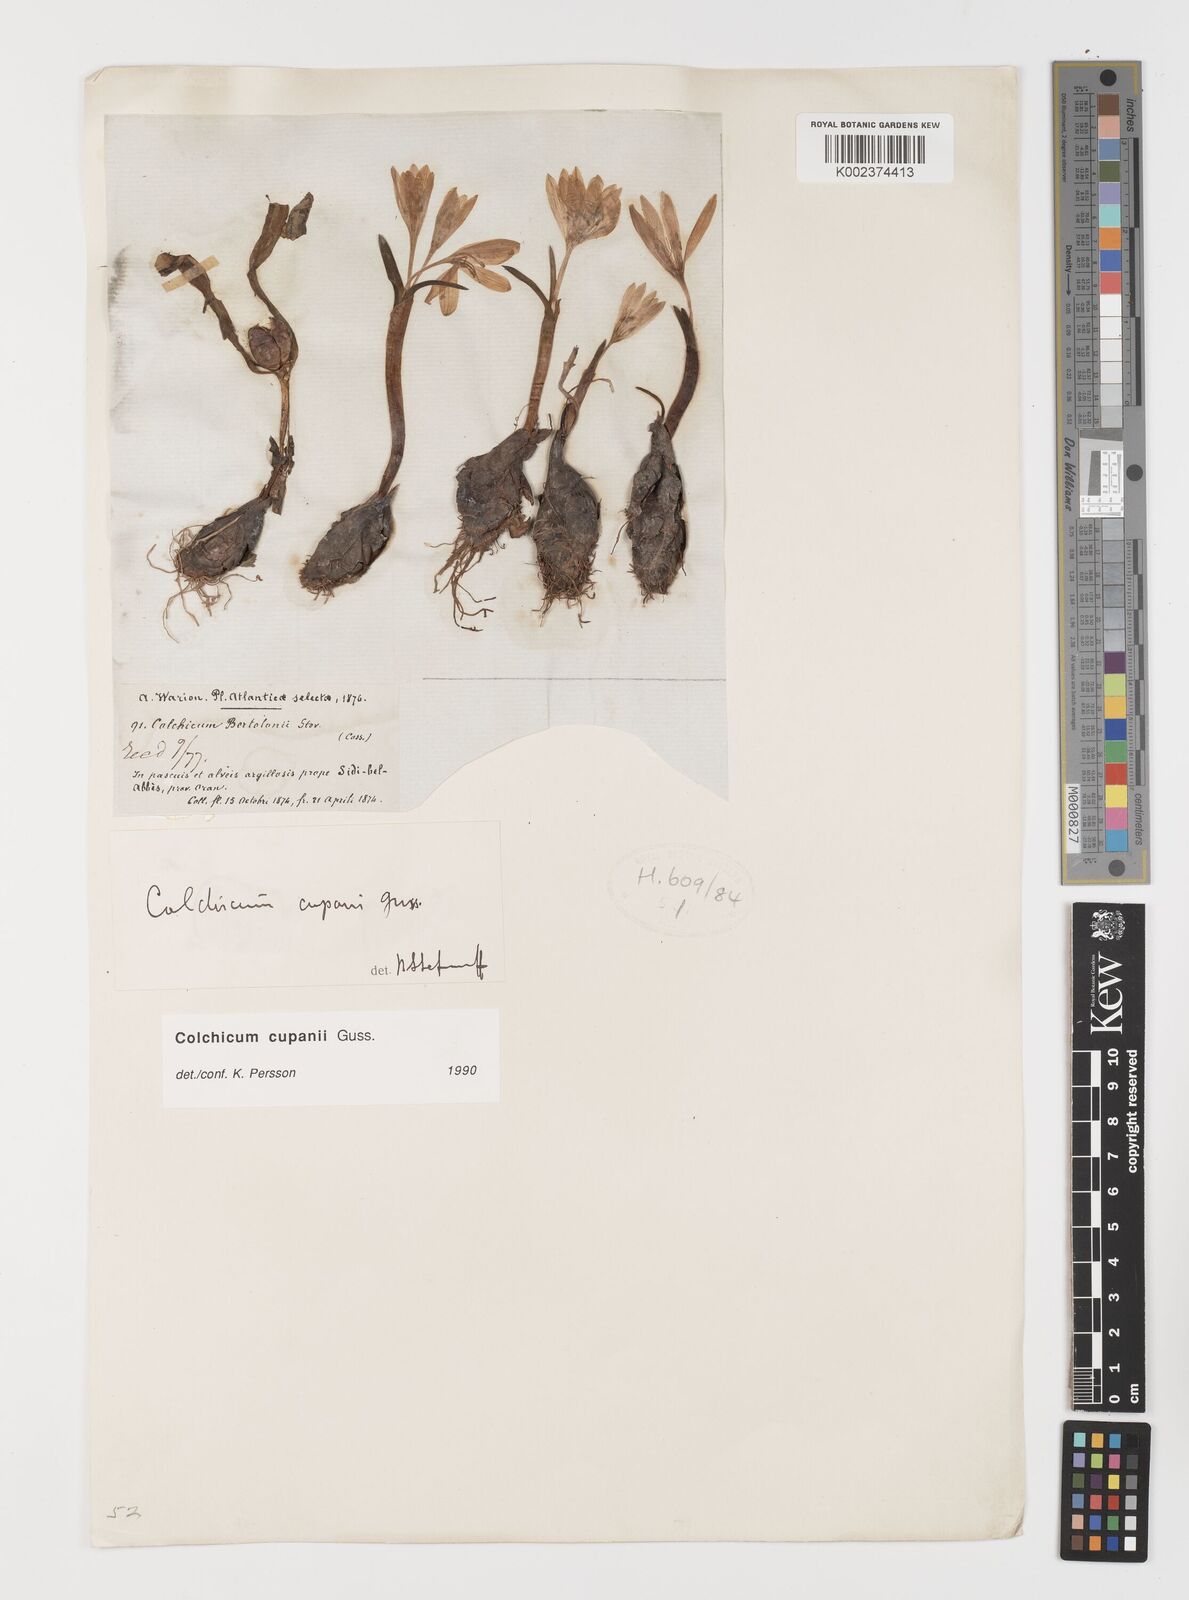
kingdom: Plantae
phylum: Tracheophyta
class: Liliopsida
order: Liliales
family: Colchicaceae
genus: Colchicum
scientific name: Colchicum cupanii
